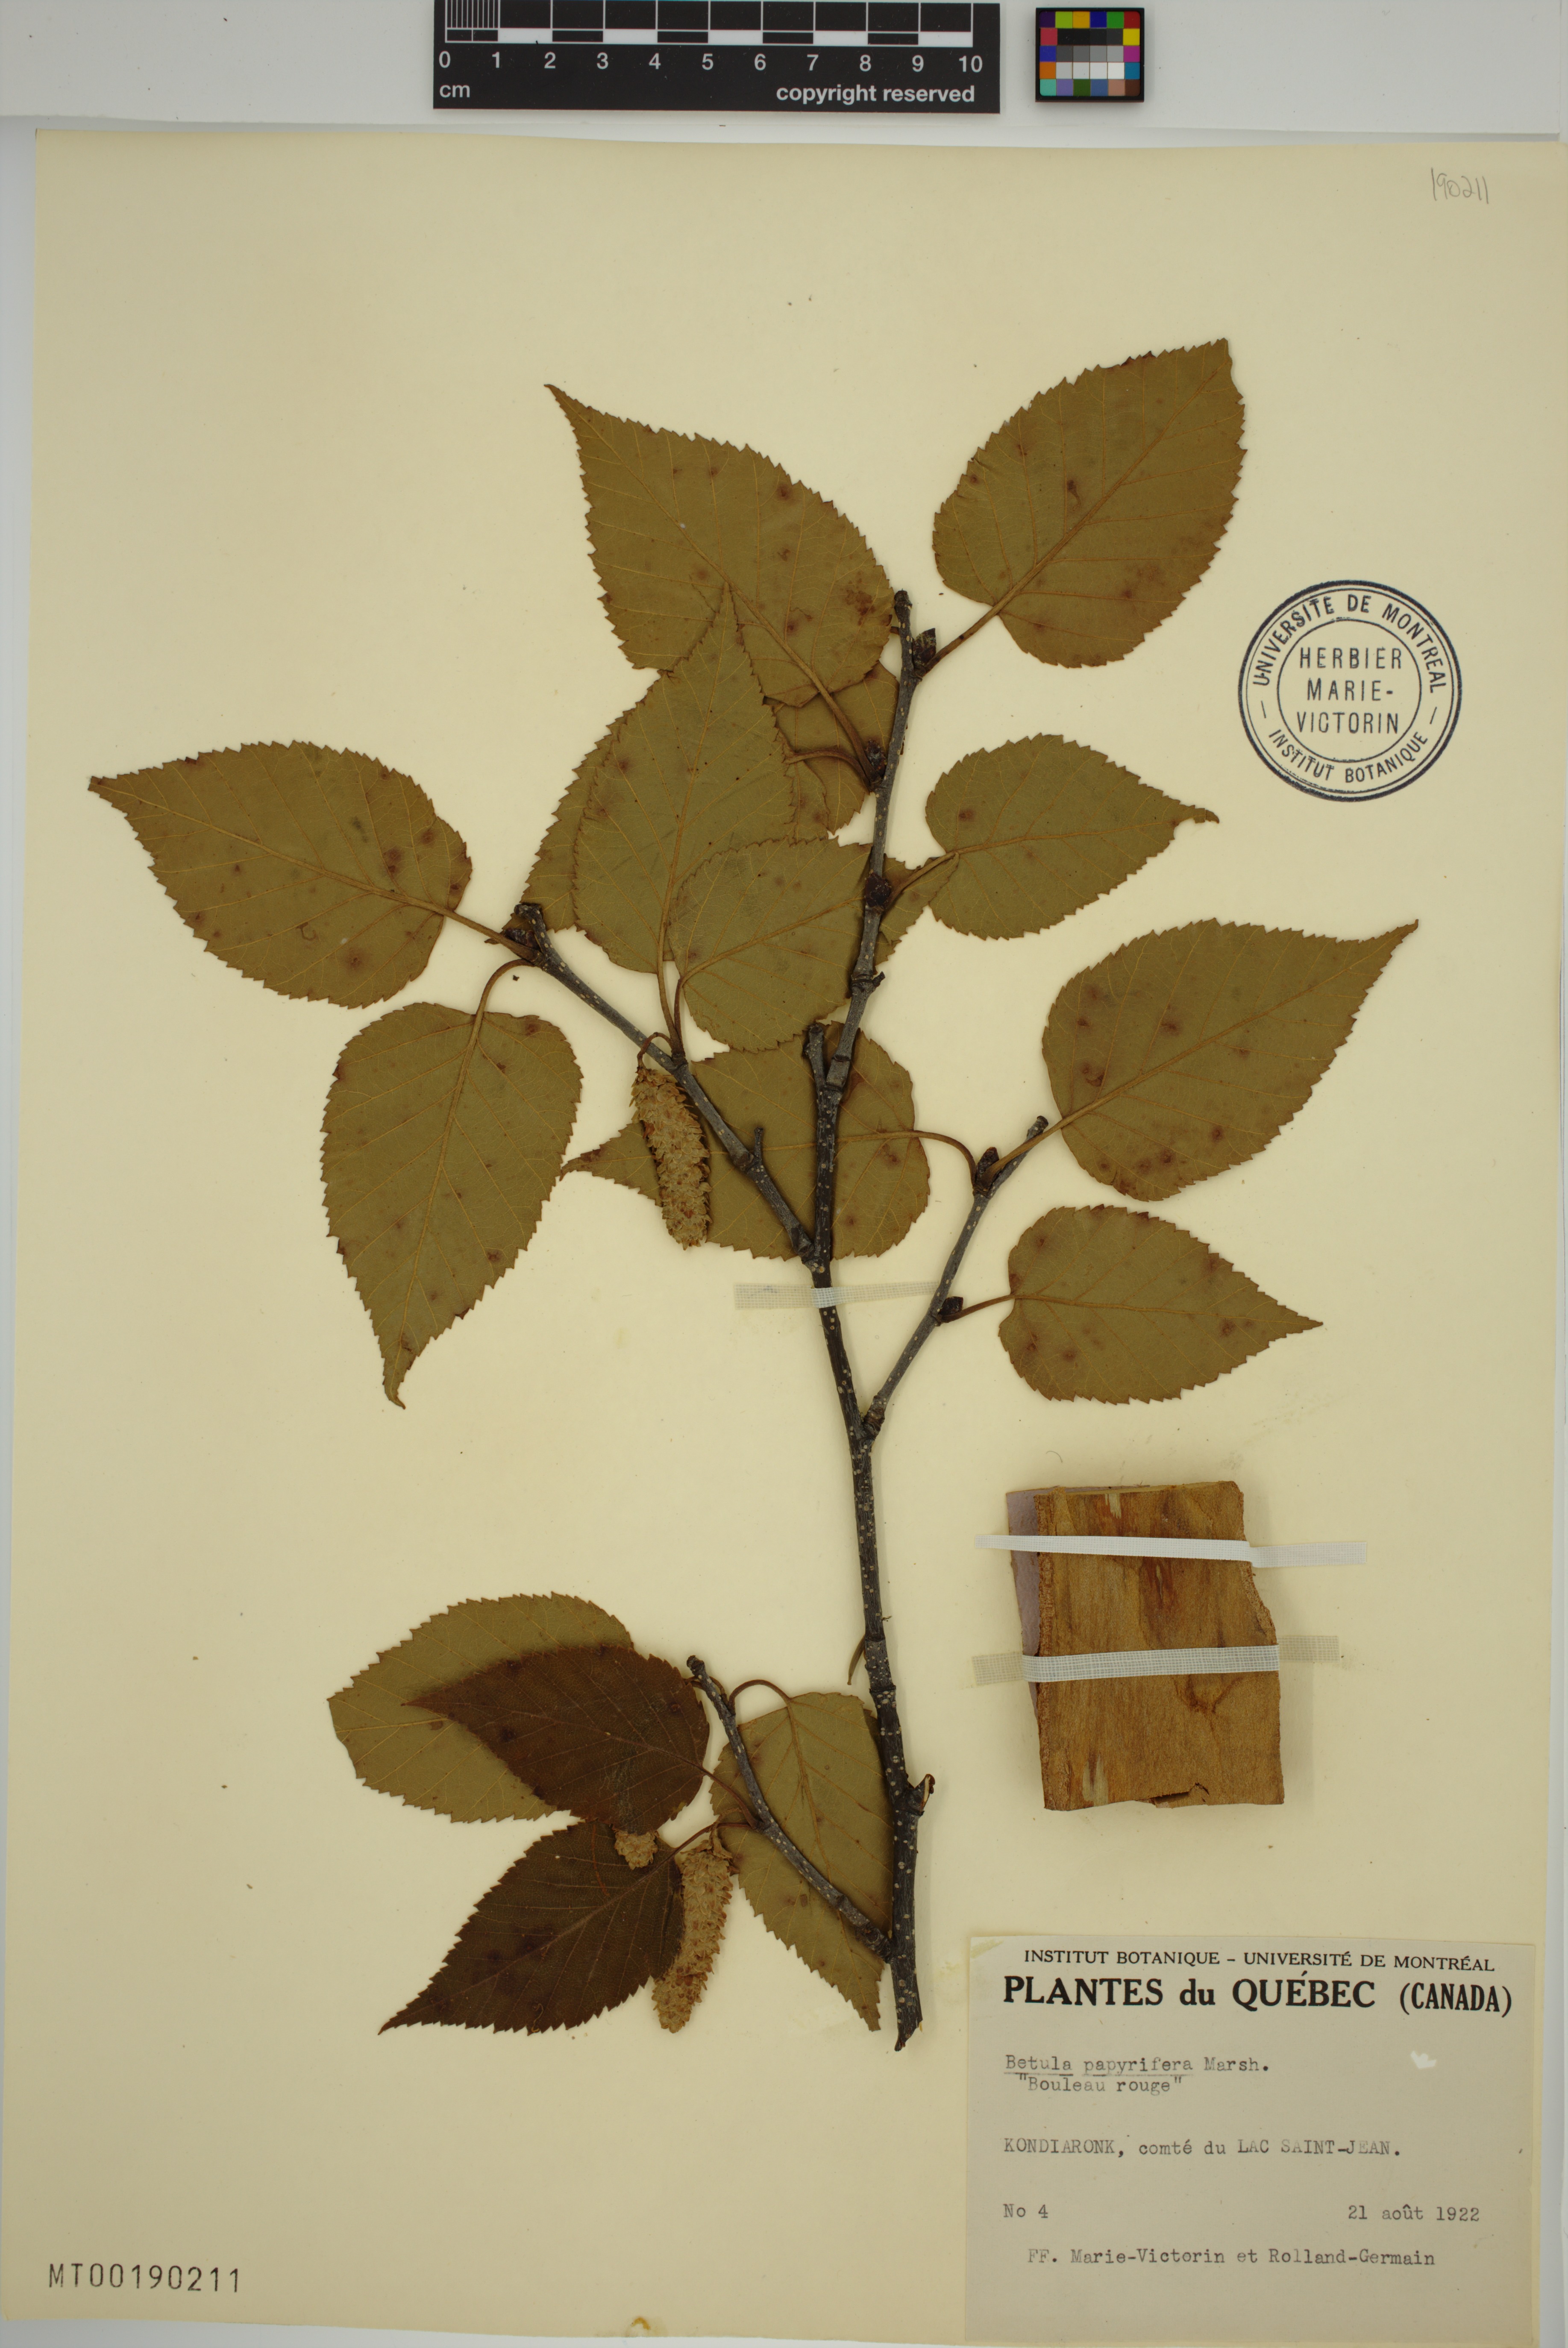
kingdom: Plantae
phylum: Tracheophyta
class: Magnoliopsida
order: Fagales
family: Betulaceae
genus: Betula
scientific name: Betula papyrifera
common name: Paper birch
